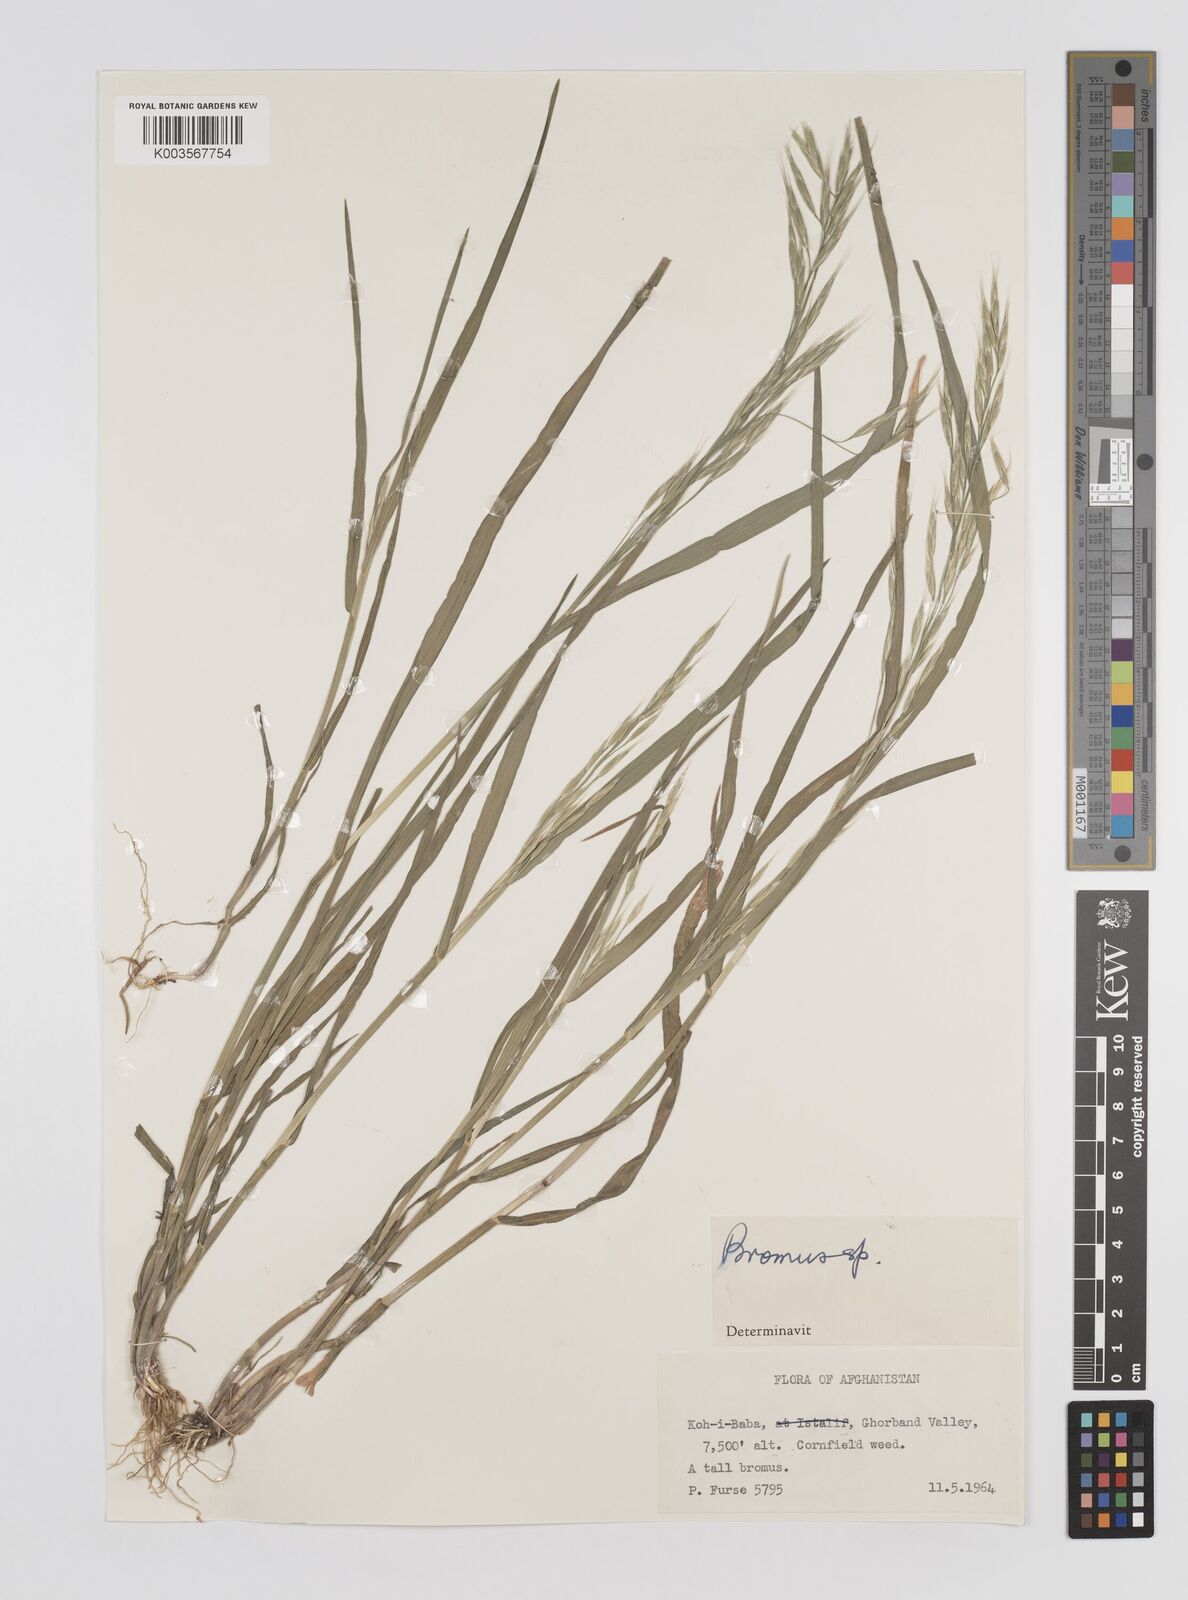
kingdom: Plantae
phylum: Tracheophyta
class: Liliopsida
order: Poales
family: Poaceae
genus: Bromus
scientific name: Bromus
